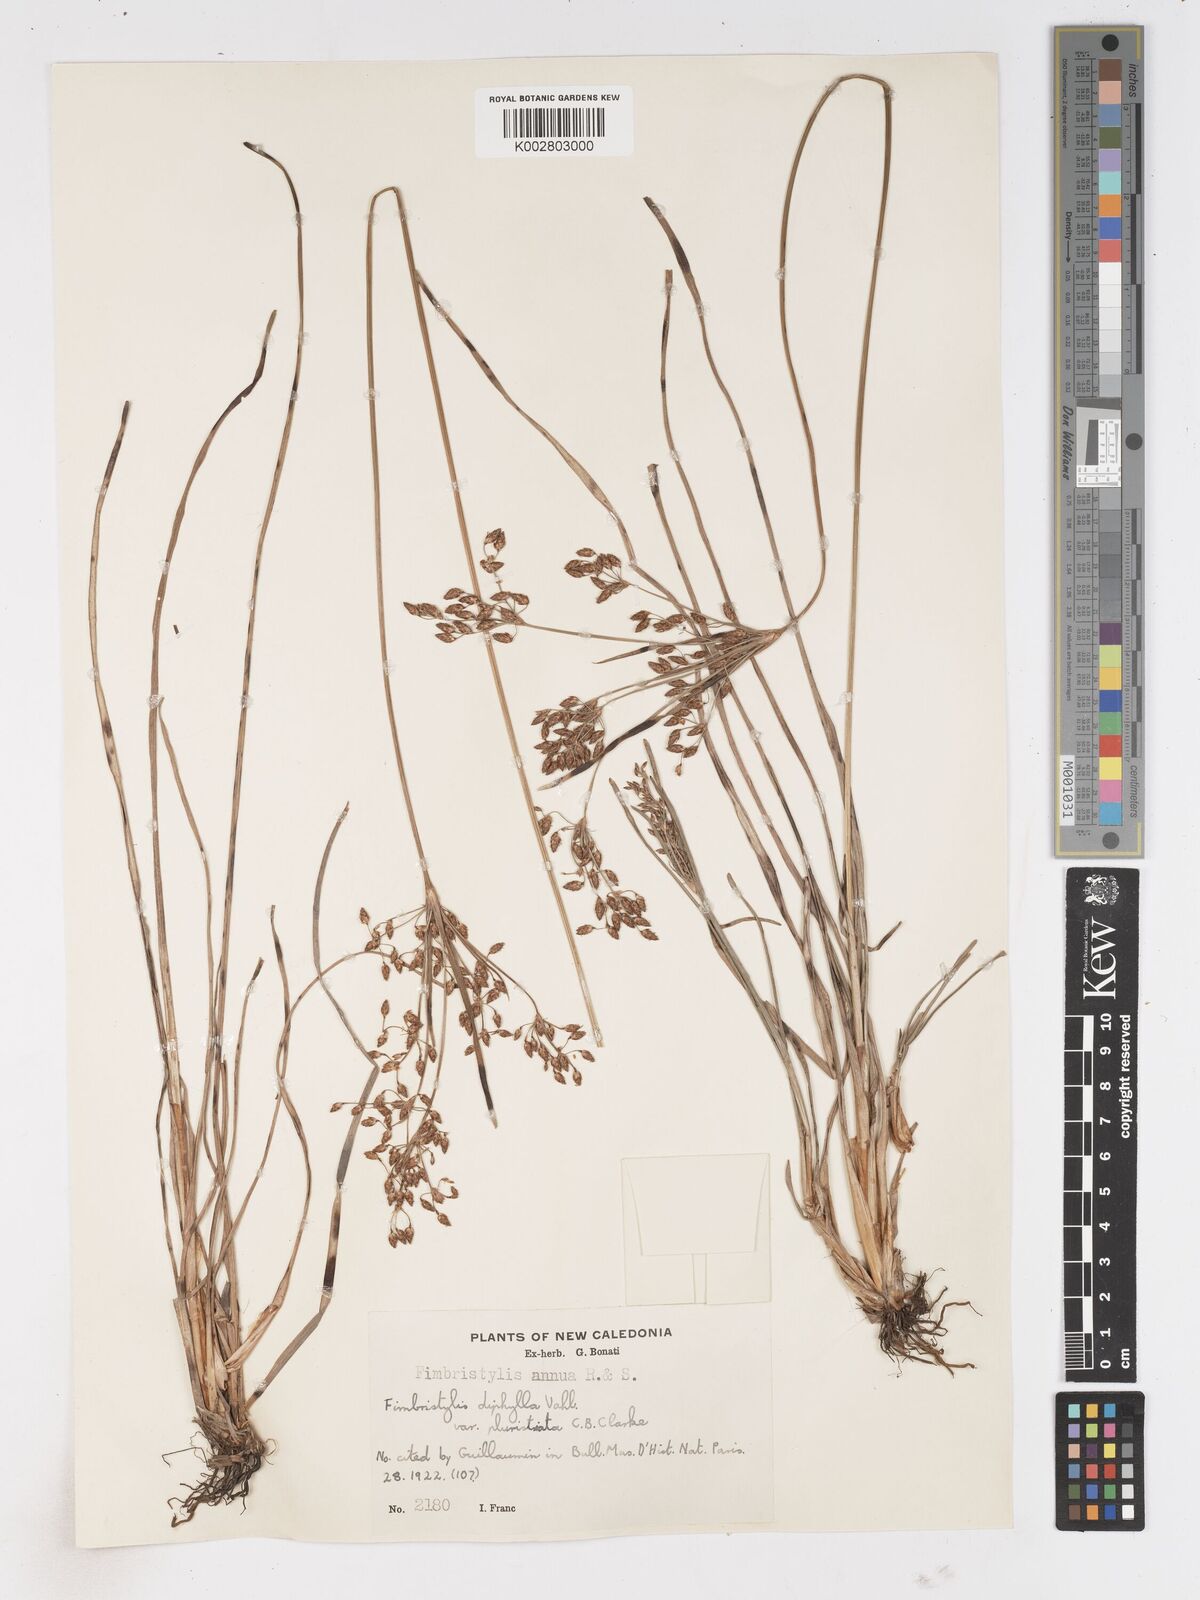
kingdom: Plantae
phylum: Tracheophyta
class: Liliopsida
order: Poales
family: Cyperaceae
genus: Fimbristylis
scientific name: Fimbristylis dichotoma
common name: Forked fimbry
